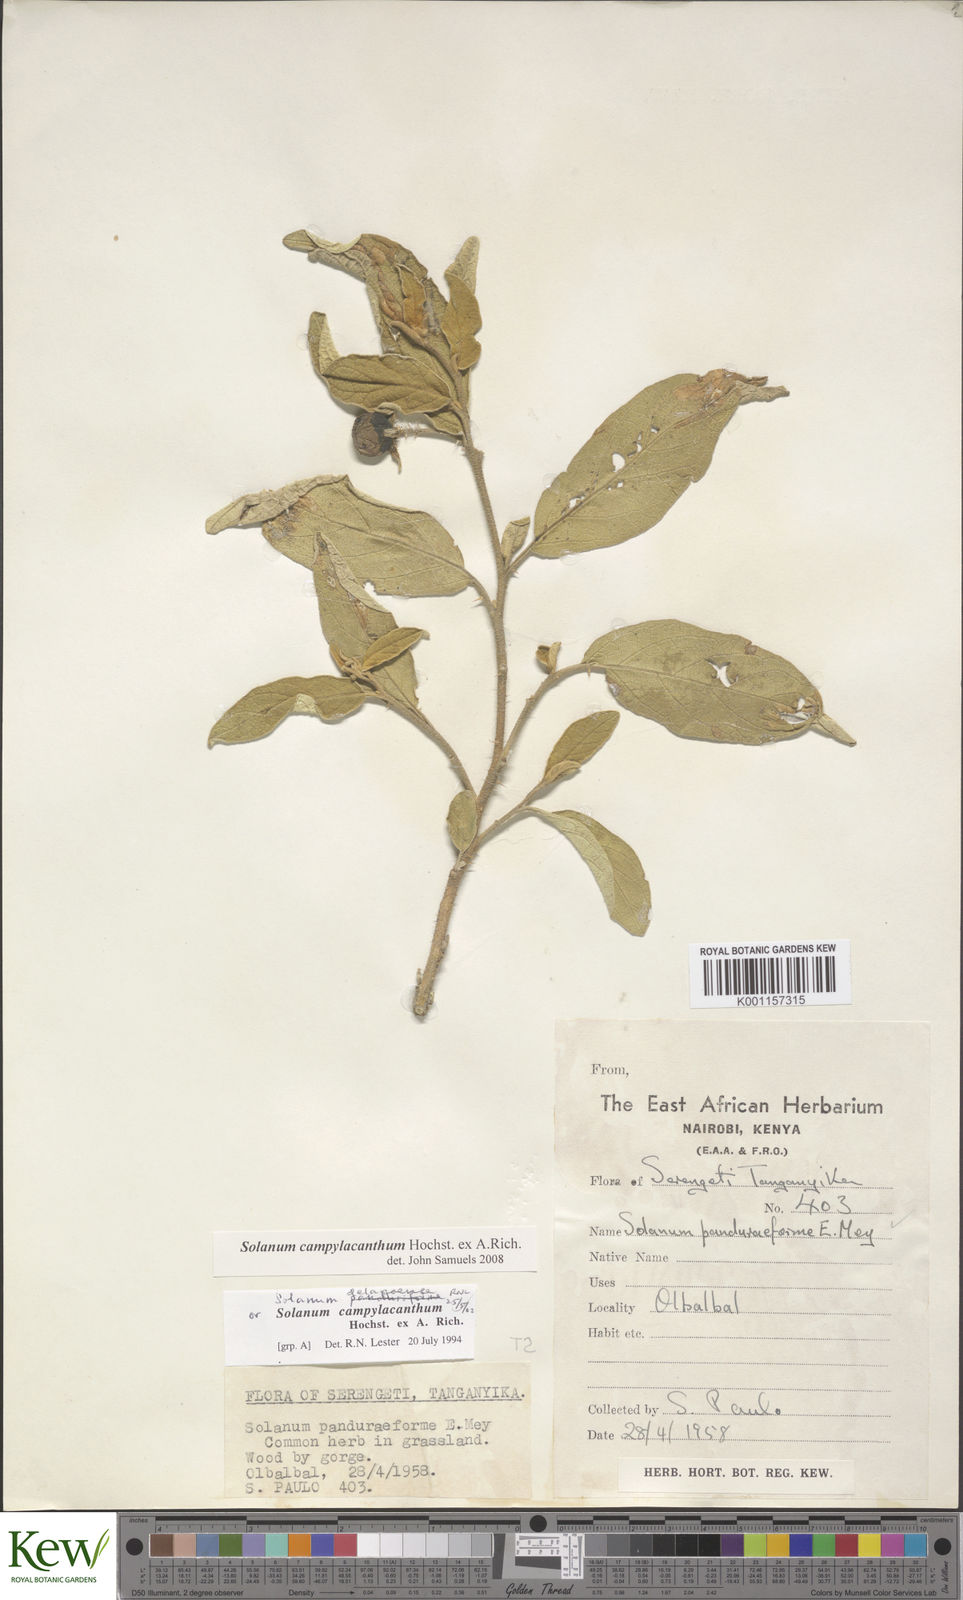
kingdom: Plantae
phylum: Tracheophyta
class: Magnoliopsida
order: Solanales
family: Solanaceae
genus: Solanum
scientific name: Solanum campylacanthum
